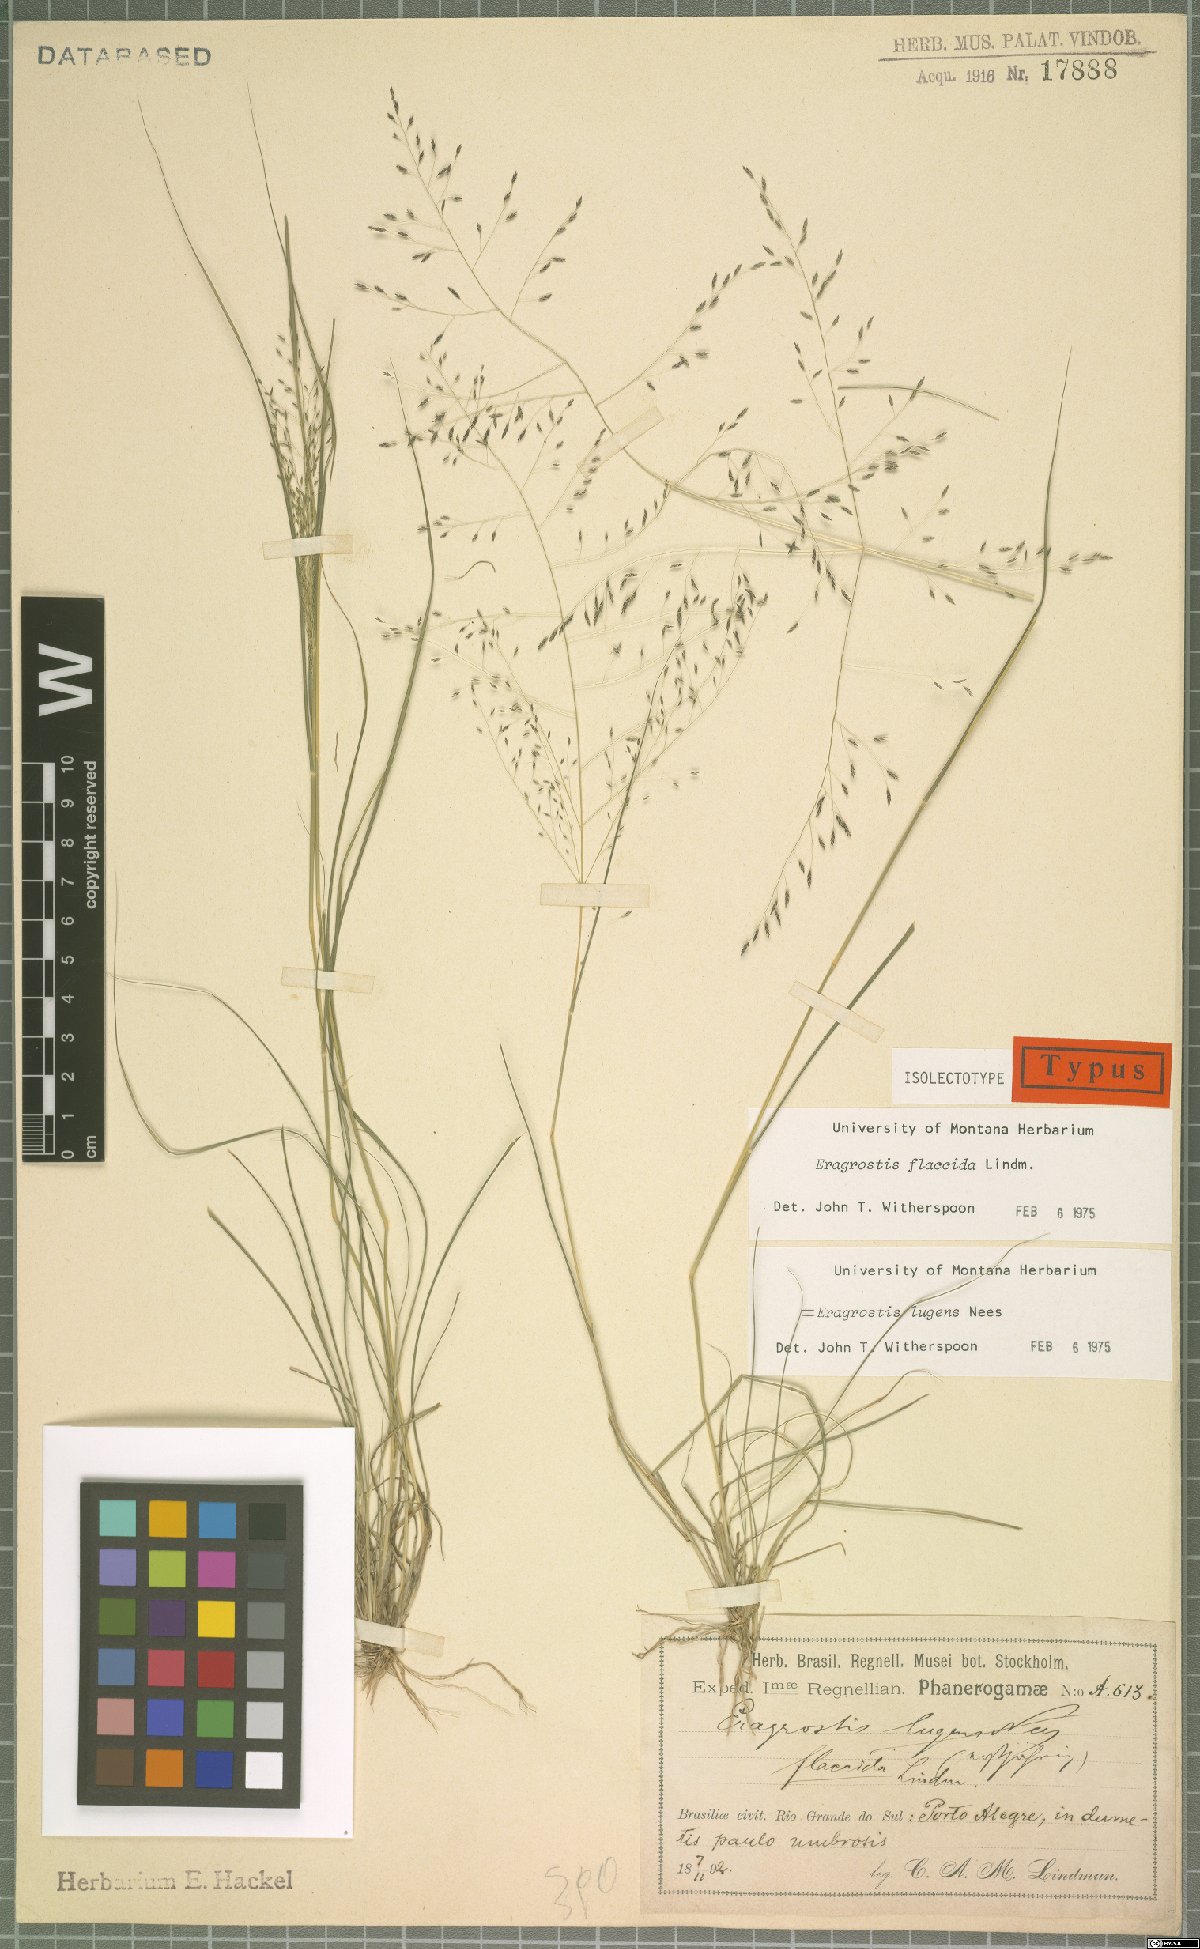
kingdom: Plantae
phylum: Tracheophyta
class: Liliopsida
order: Poales
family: Poaceae
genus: Eragrostis
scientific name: Eragrostis lugens
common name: Mourning love grass
